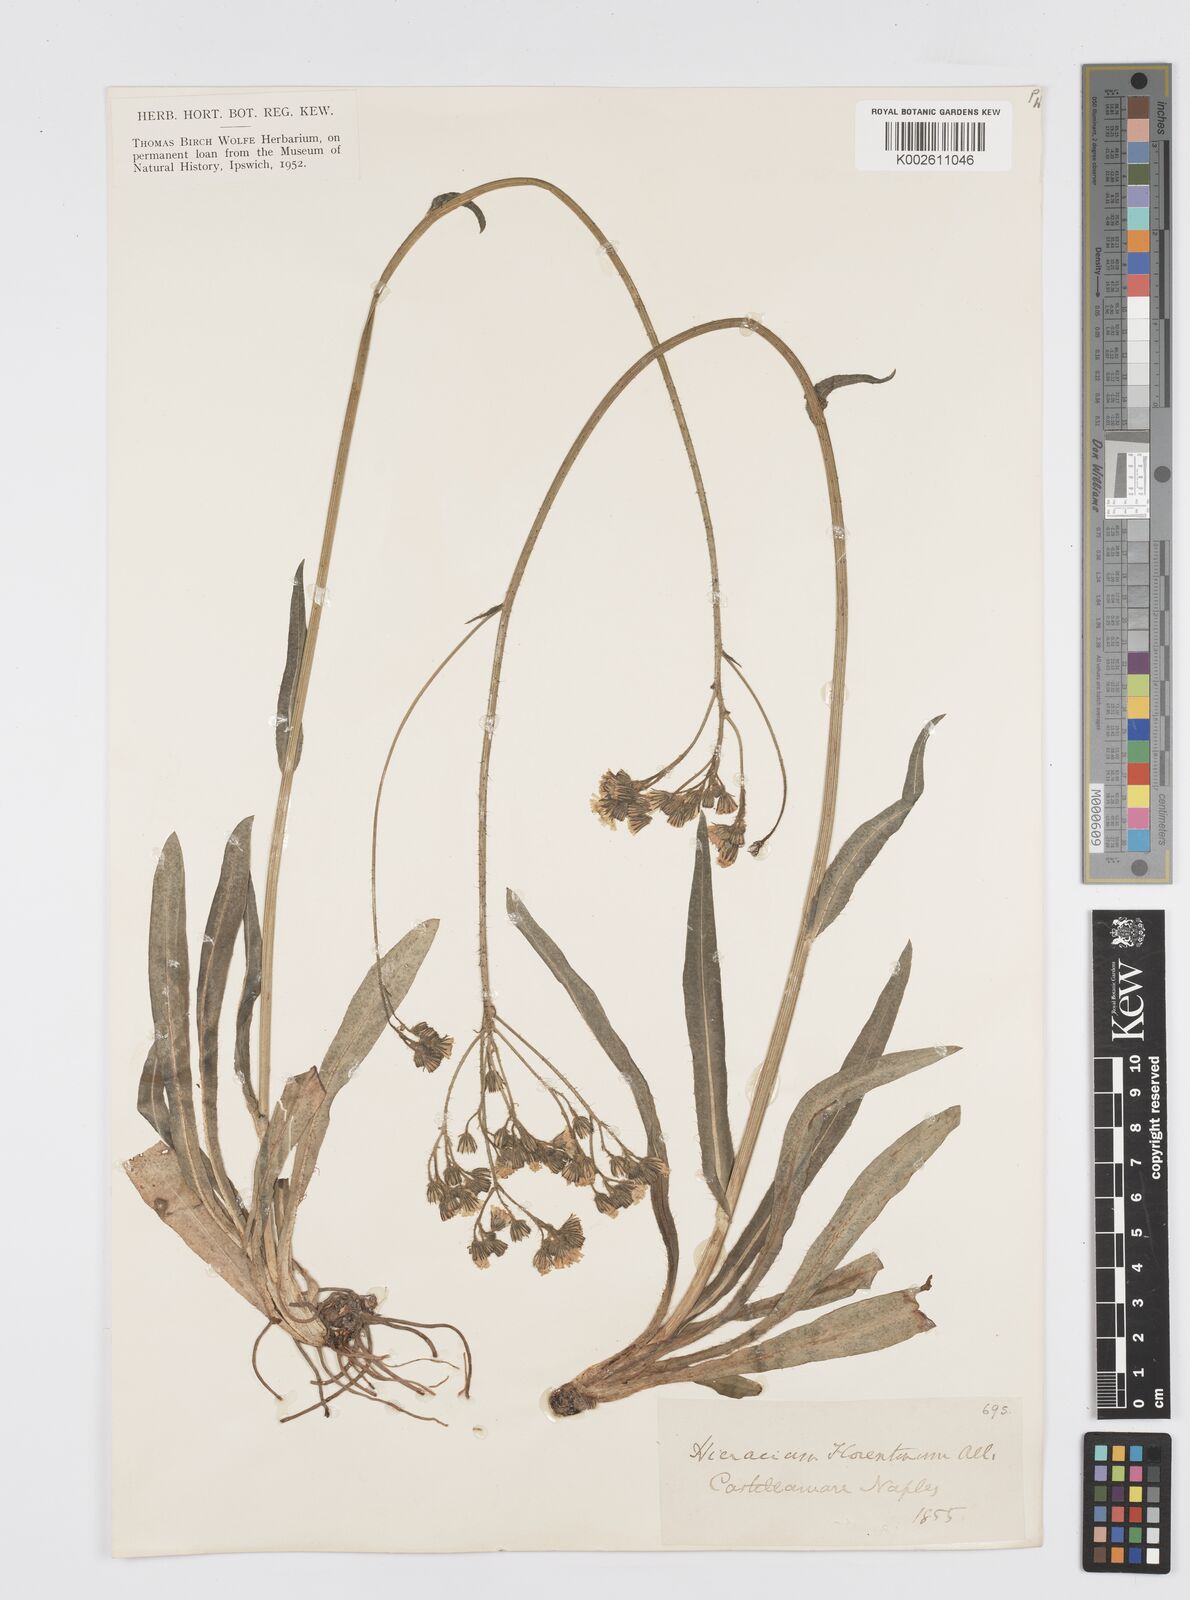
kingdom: Plantae
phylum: Tracheophyta
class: Magnoliopsida
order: Asterales
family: Asteraceae
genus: Pilosella
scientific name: Pilosella piloselloides
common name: Glaucous king-devil
